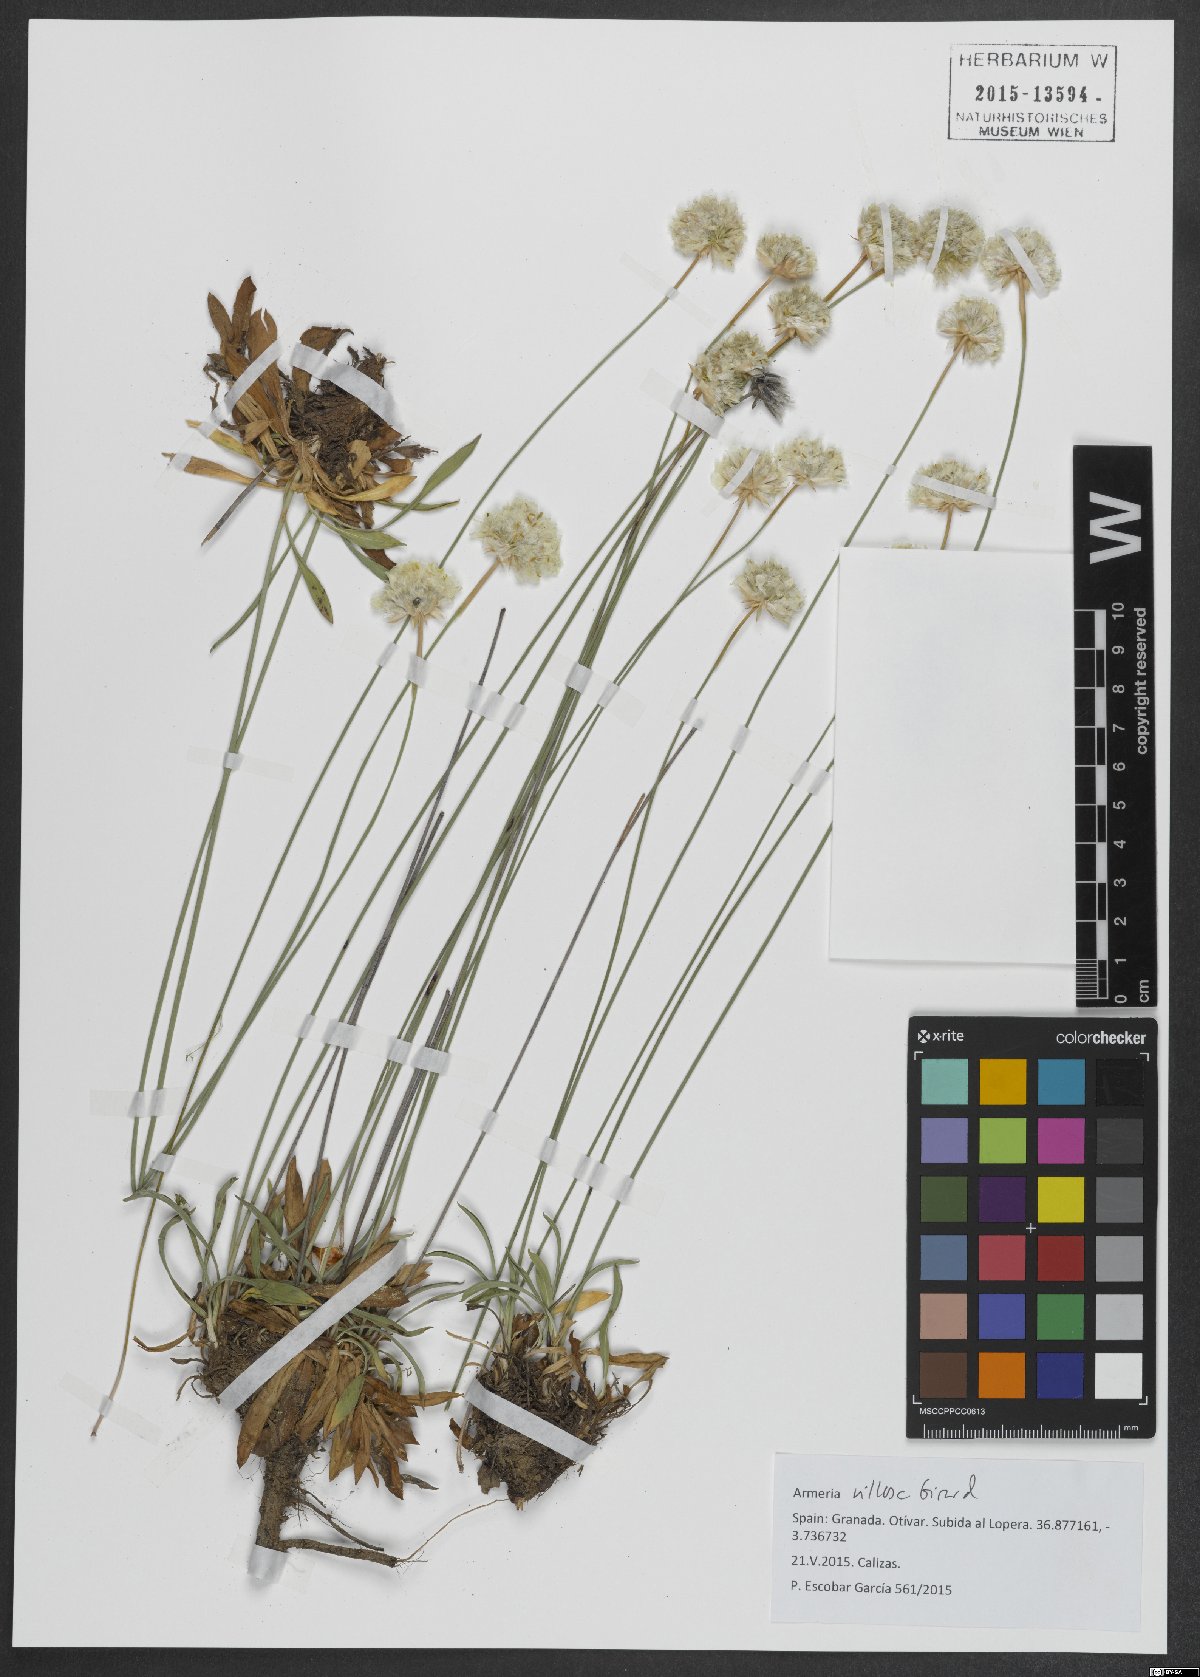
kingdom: Plantae
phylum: Tracheophyta
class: Magnoliopsida
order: Caryophyllales
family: Plumbaginaceae
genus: Armeria
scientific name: Armeria villosa
